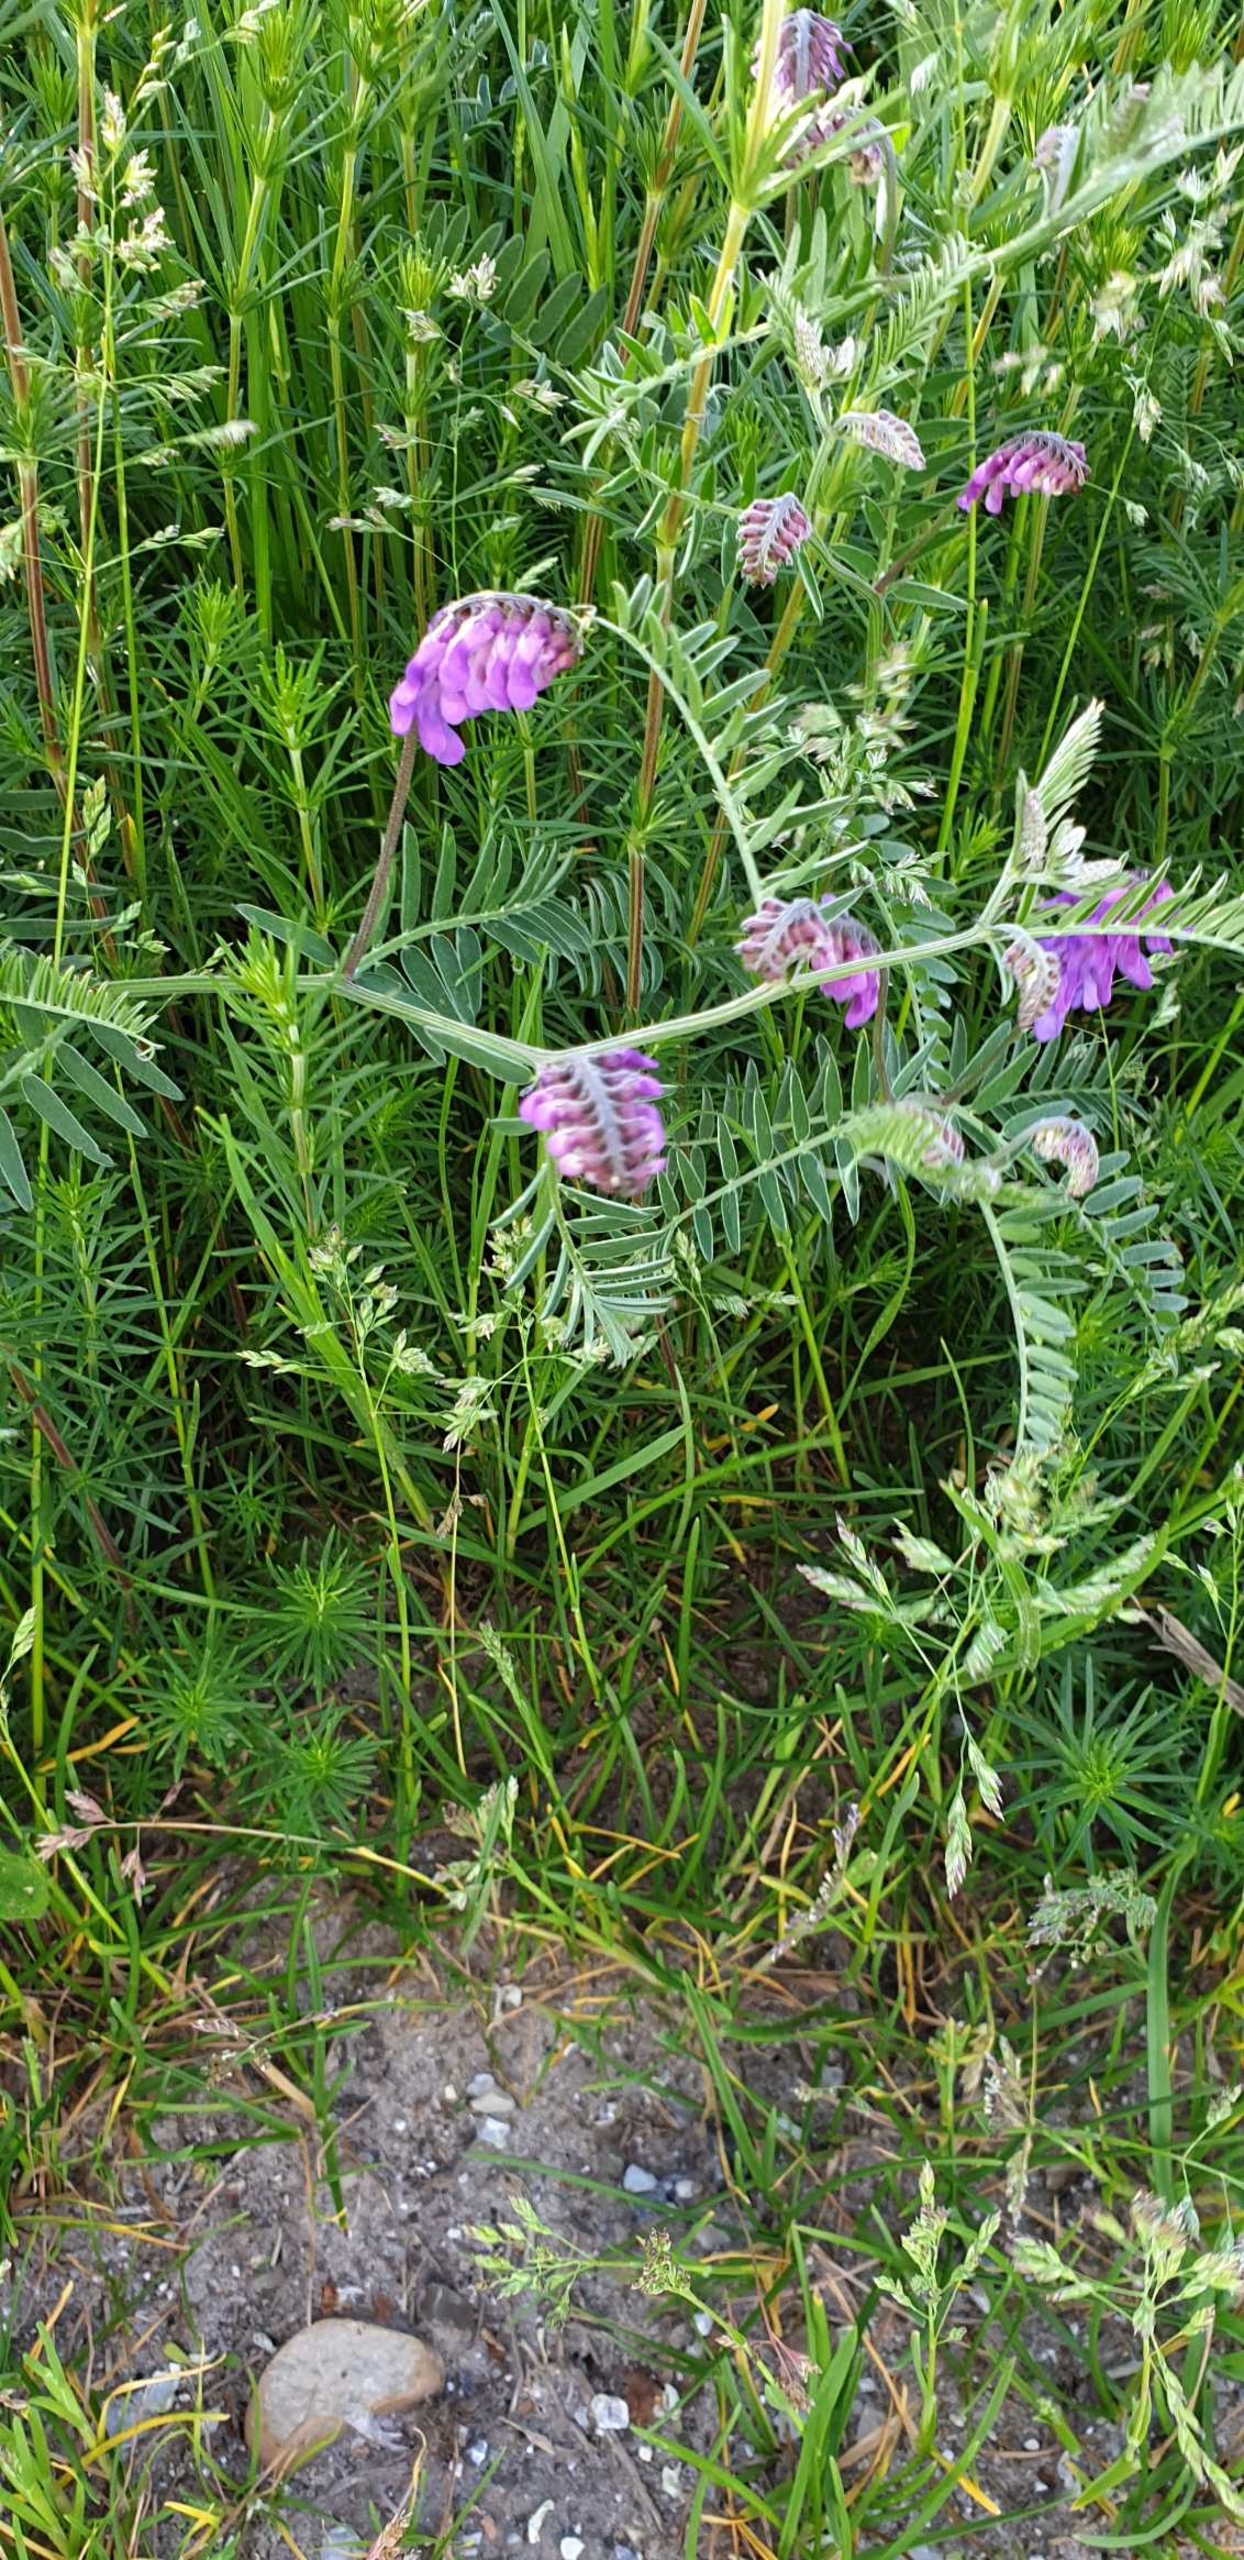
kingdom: Plantae
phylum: Tracheophyta
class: Magnoliopsida
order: Fabales
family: Fabaceae
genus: Vicia
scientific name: Vicia cracca
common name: Muse-vikke
